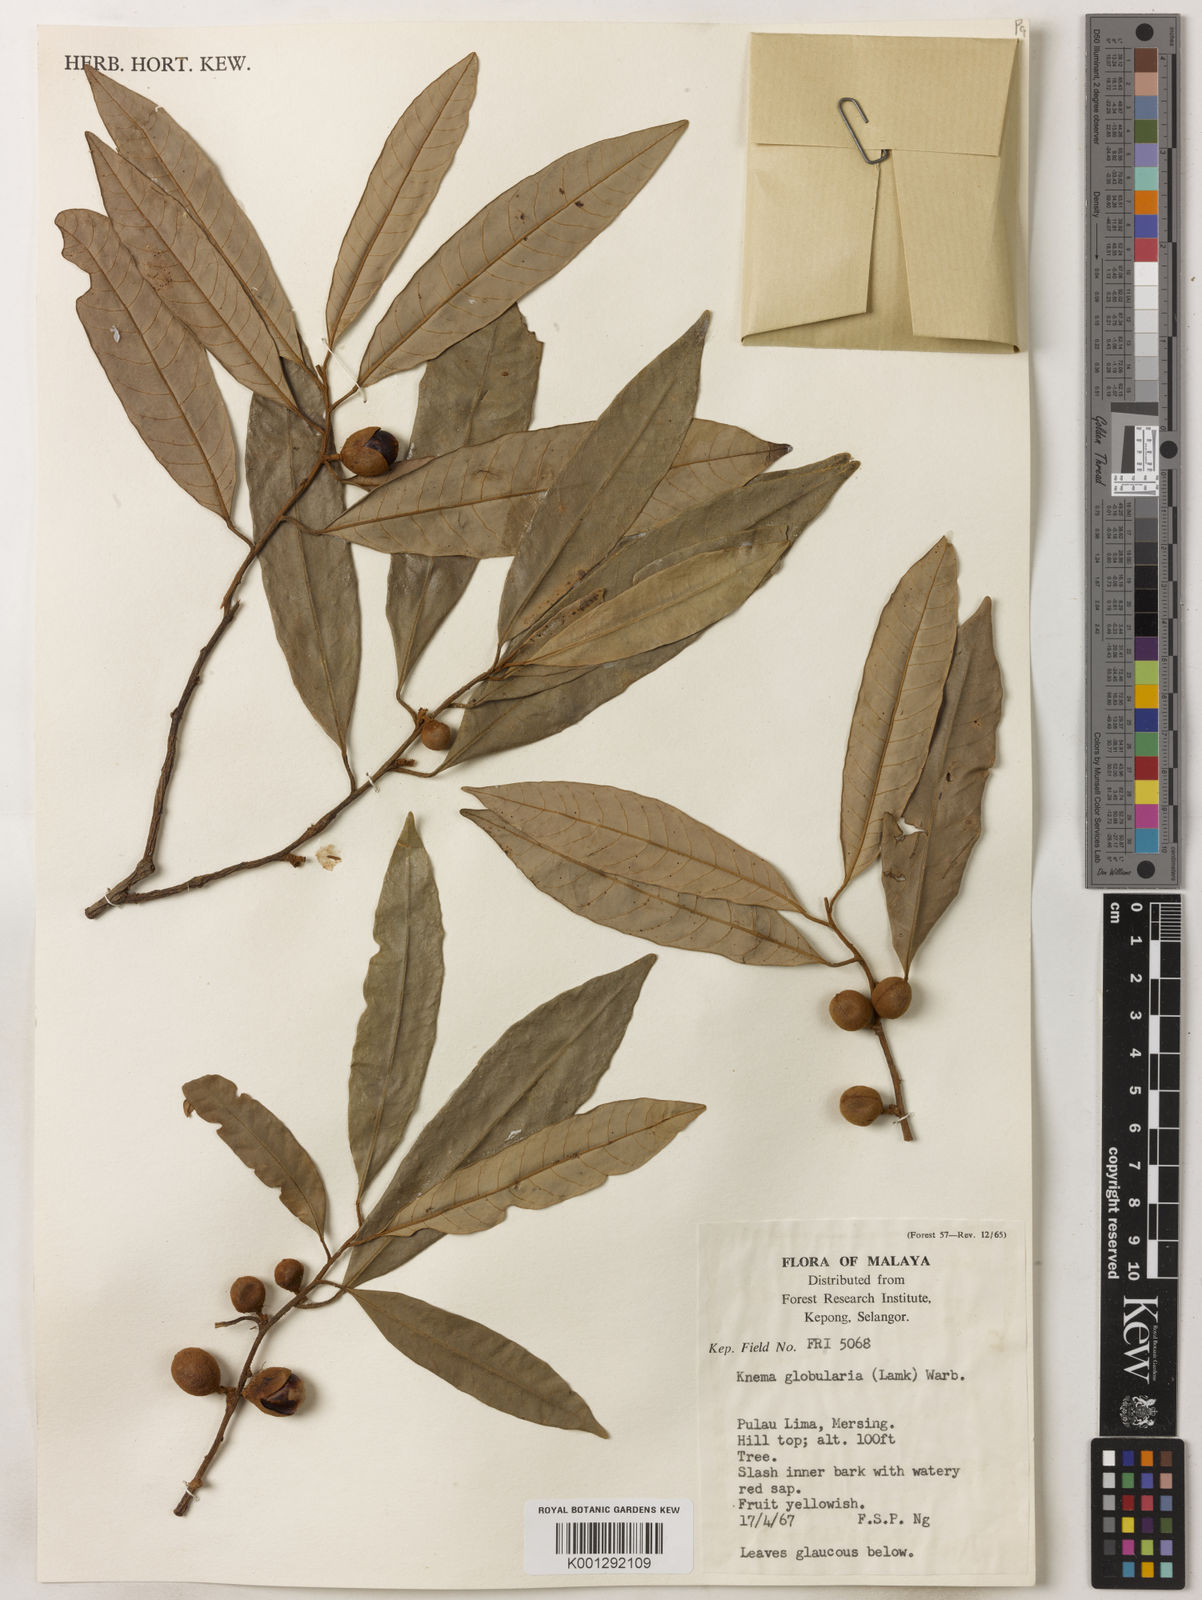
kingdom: Plantae
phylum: Tracheophyta
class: Magnoliopsida
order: Magnoliales
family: Myristicaceae
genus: Knema
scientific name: Knema globularia
